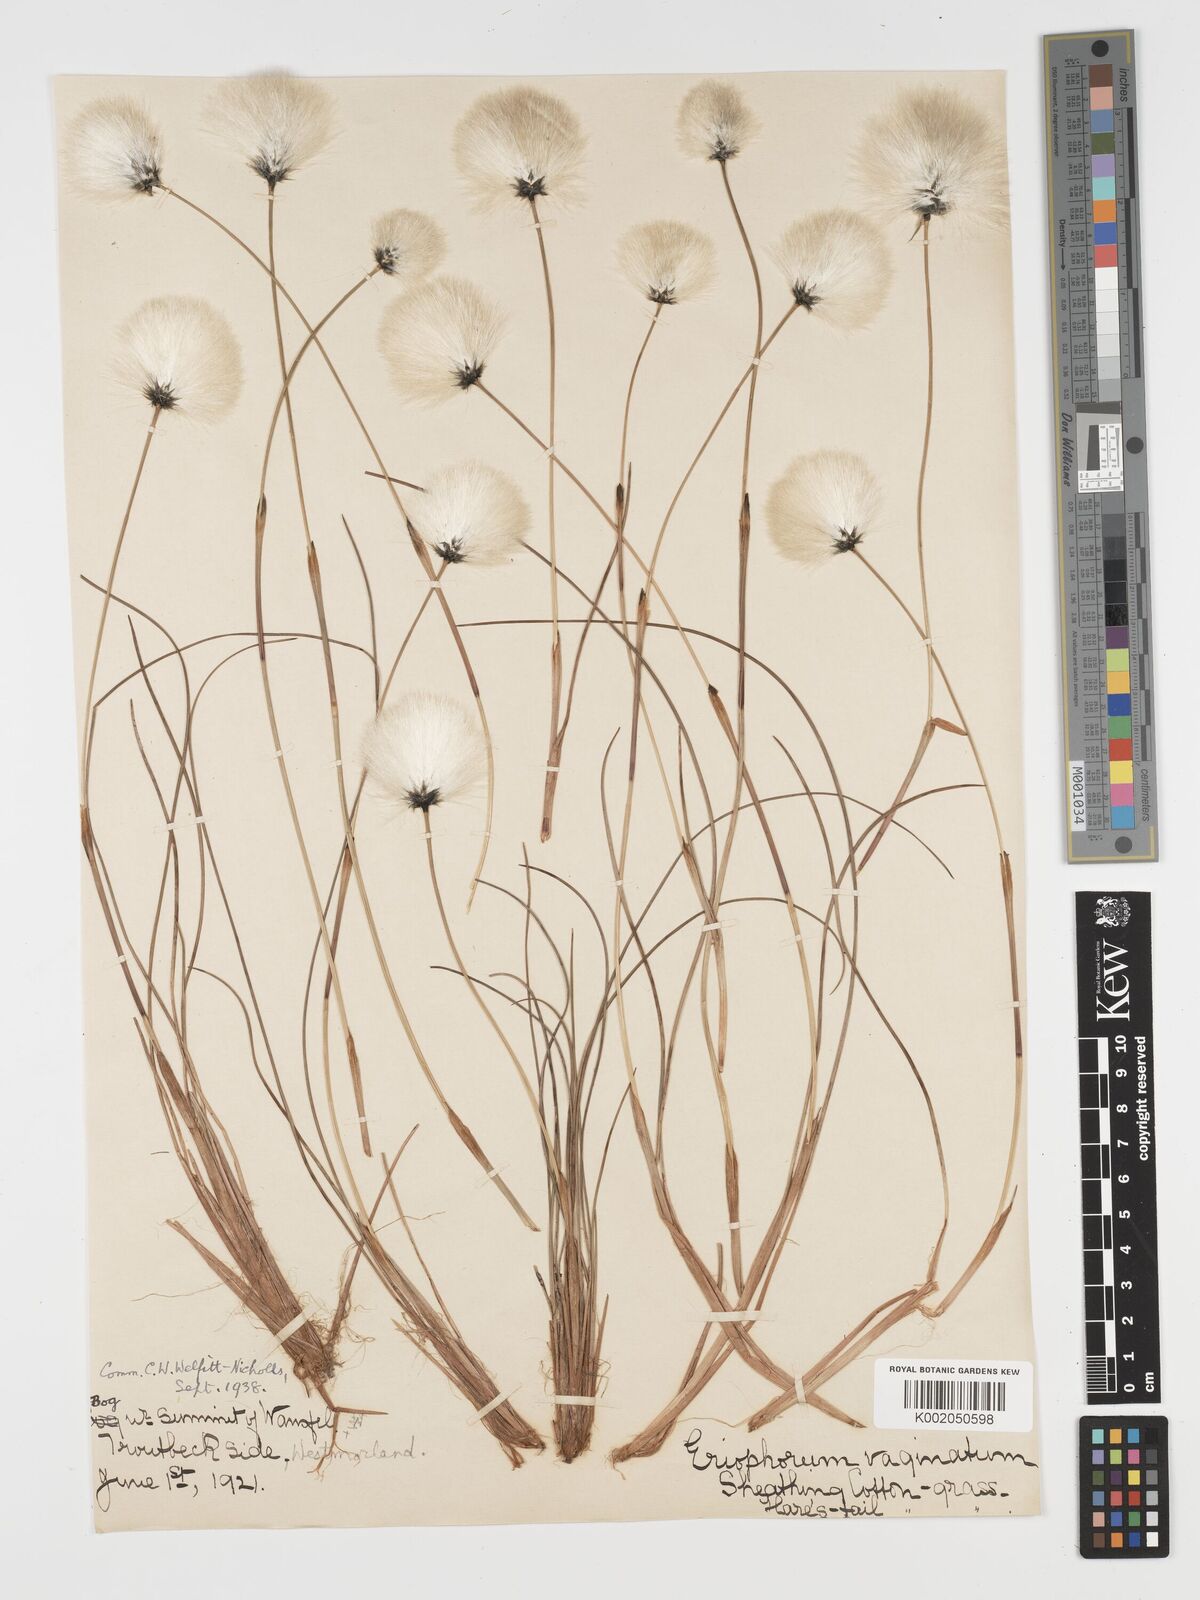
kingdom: Plantae
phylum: Tracheophyta
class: Liliopsida
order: Poales
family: Cyperaceae
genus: Eriophorum
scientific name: Eriophorum vaginatum
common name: Hare's-tail cottongrass
